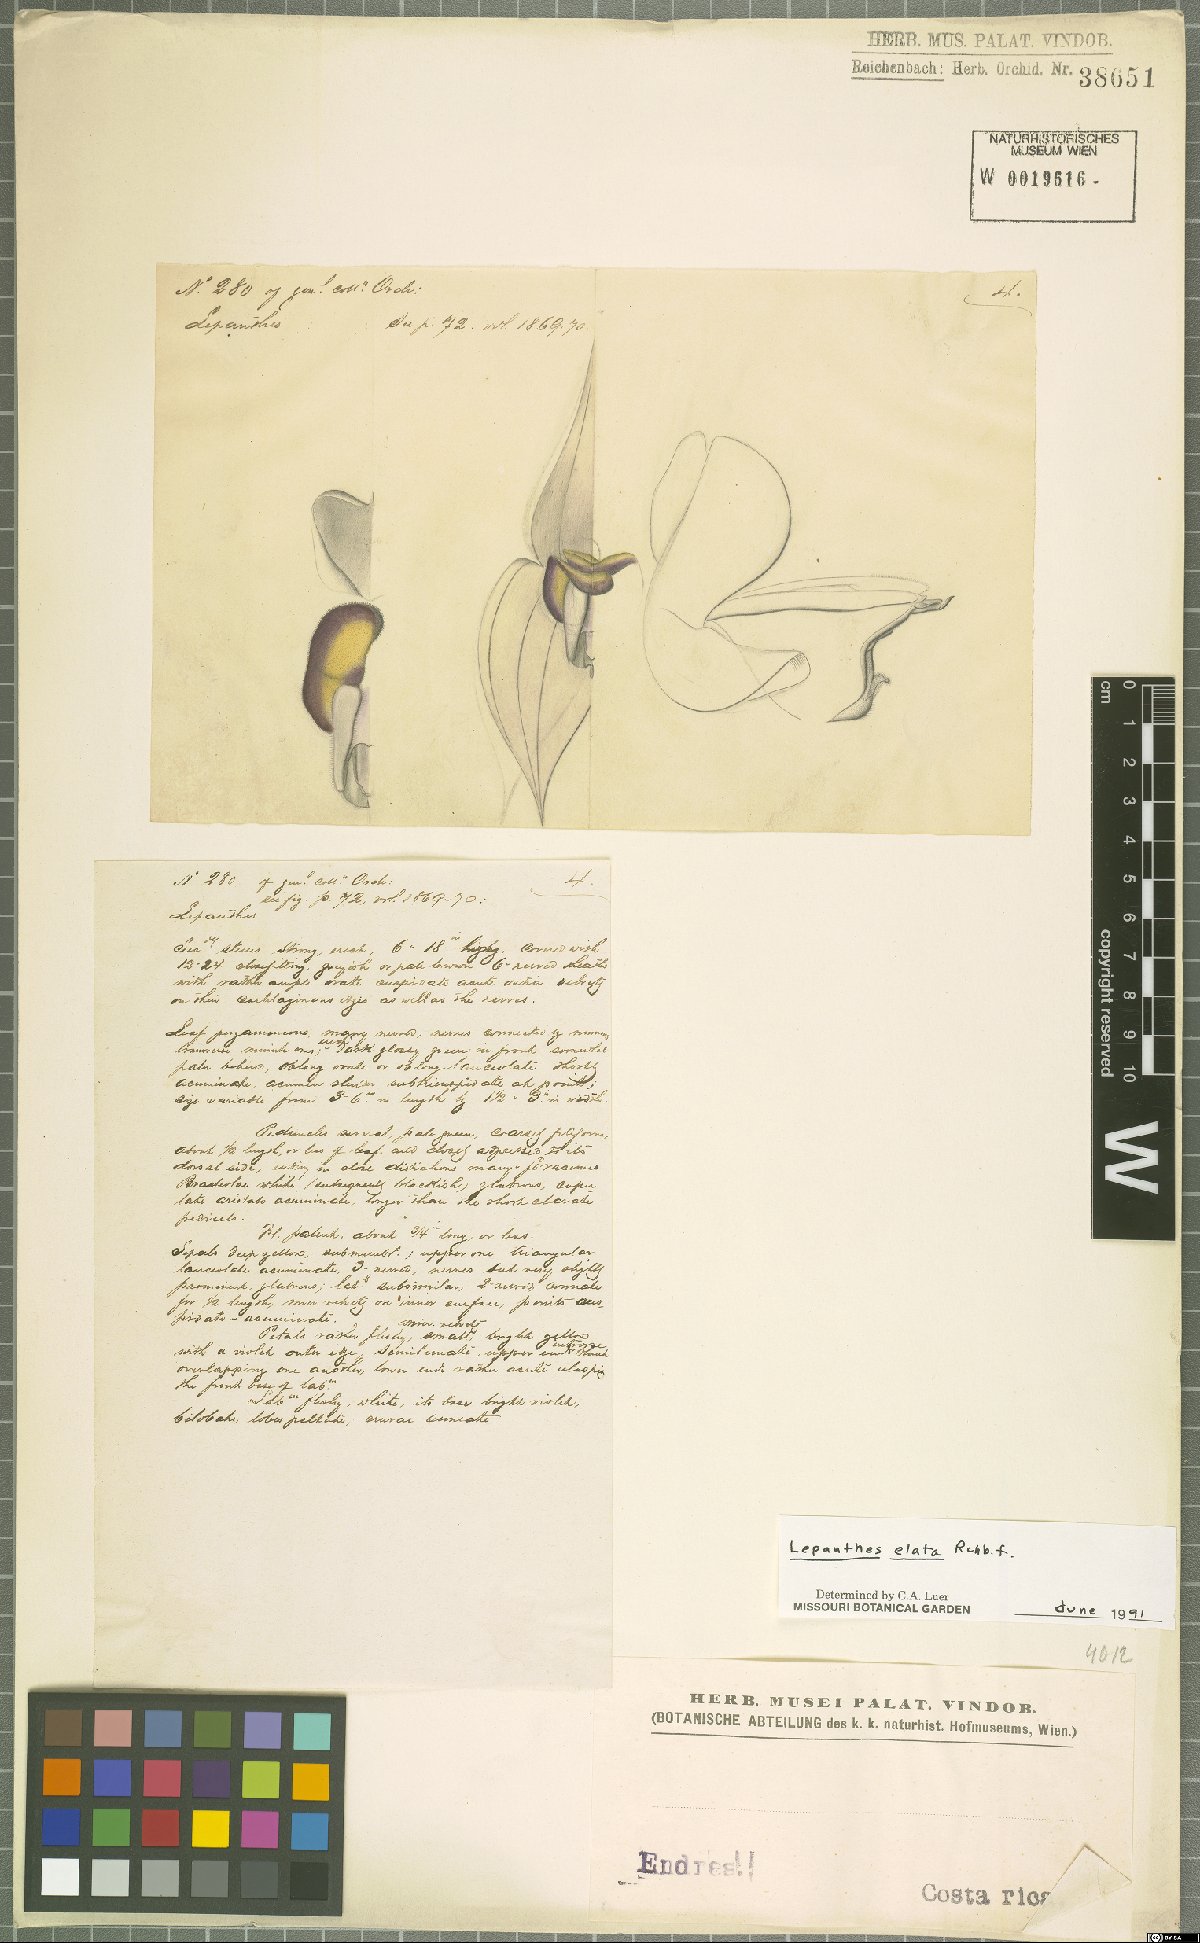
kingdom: Plantae
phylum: Tracheophyta
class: Liliopsida
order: Asparagales
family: Orchidaceae
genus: Lepanthes
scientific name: Lepanthes elata
